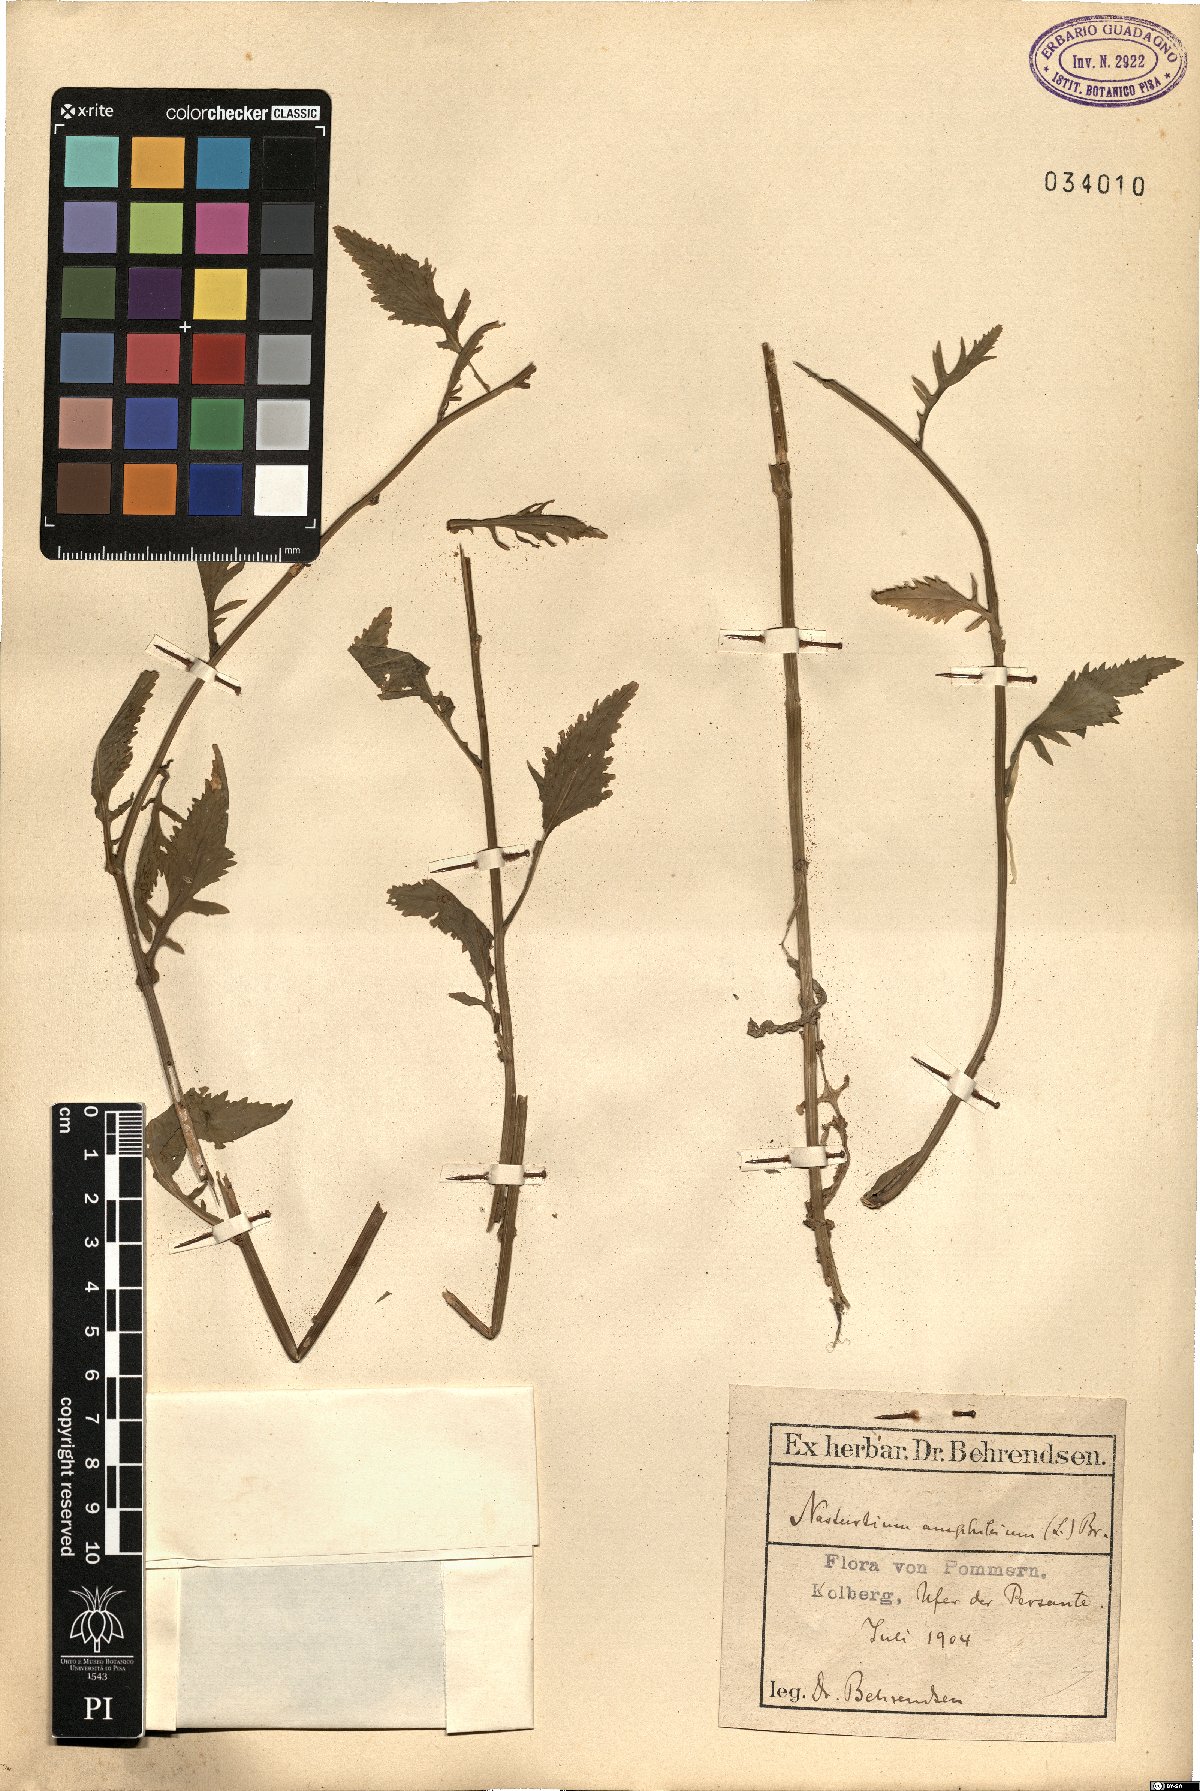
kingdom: Plantae
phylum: Tracheophyta
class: Magnoliopsida
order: Brassicales
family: Brassicaceae
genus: Rorippa
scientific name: Rorippa amphibia
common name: Great yellow-cress
